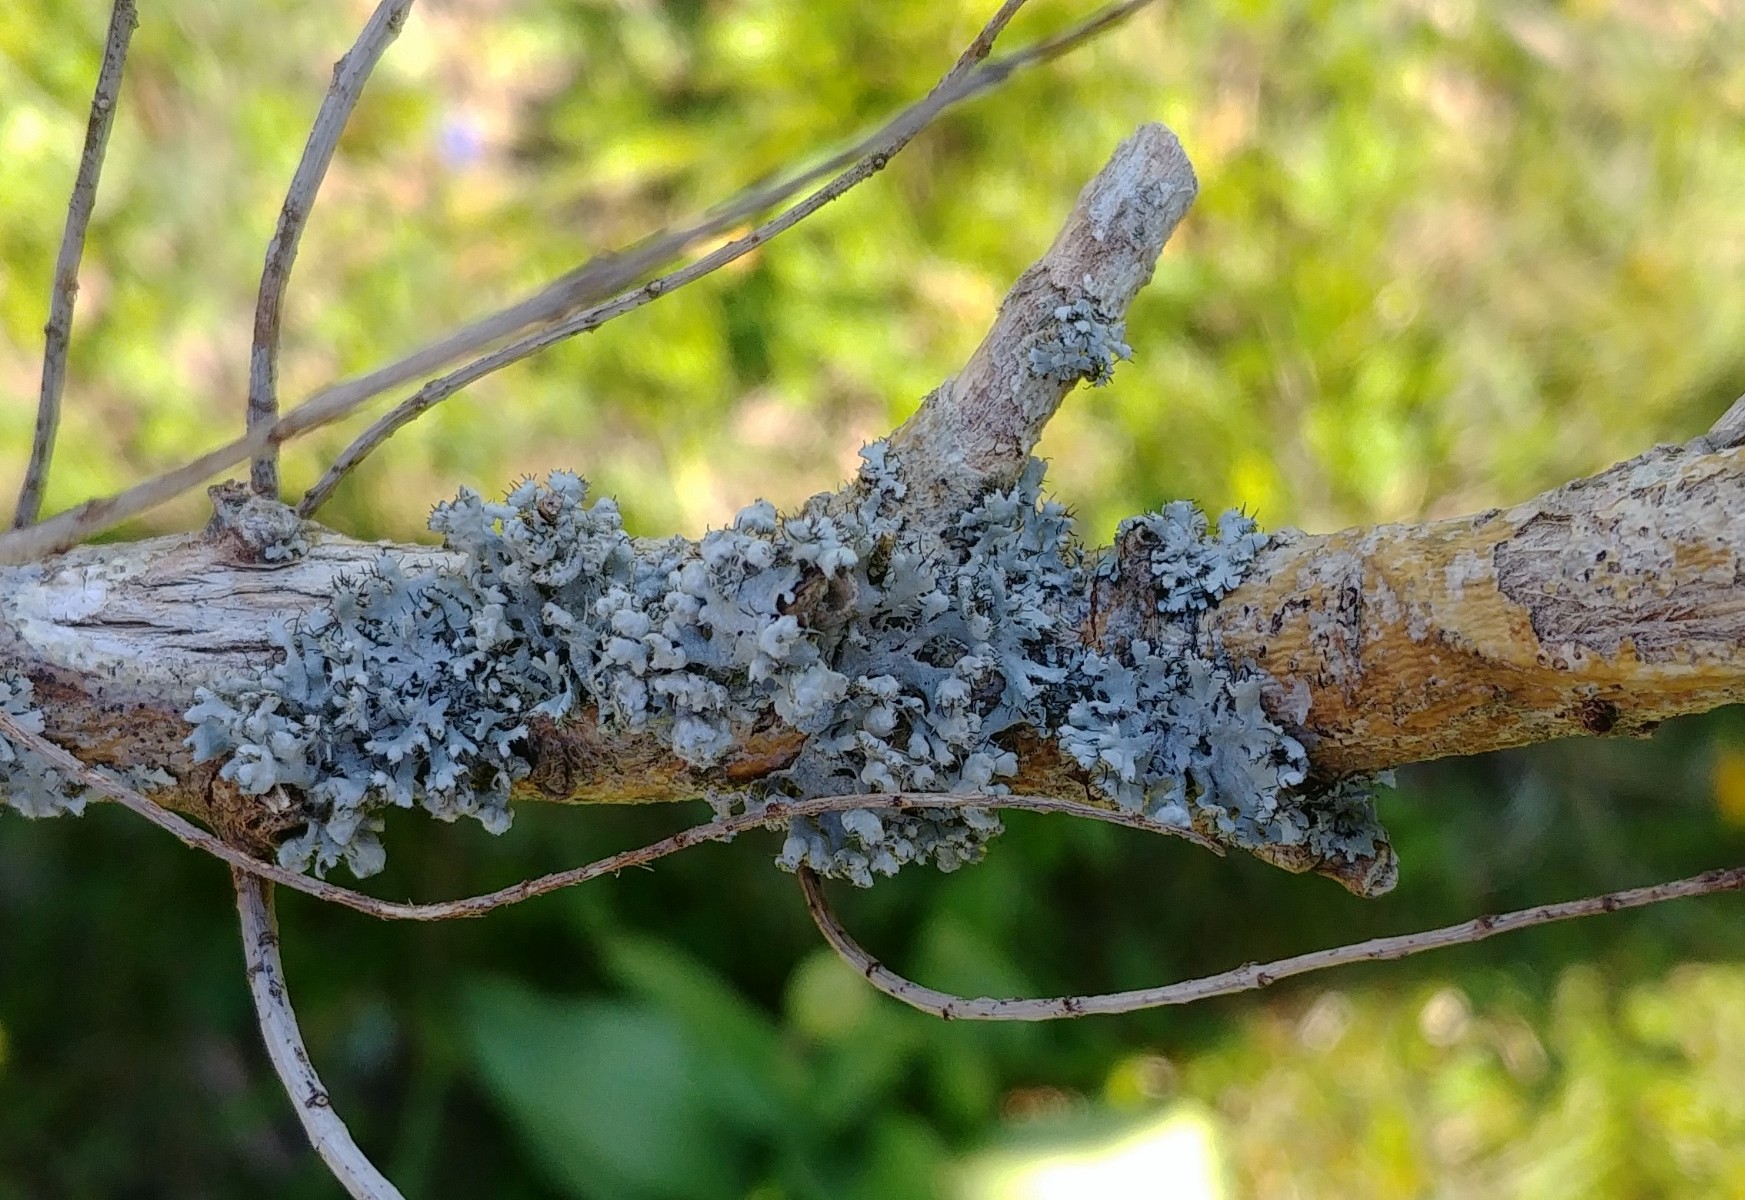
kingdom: Fungi
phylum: Ascomycota
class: Lecanoromycetes
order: Caliciales
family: Physciaceae
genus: Physcia
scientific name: Physcia tenella
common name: spæd rosetlav
